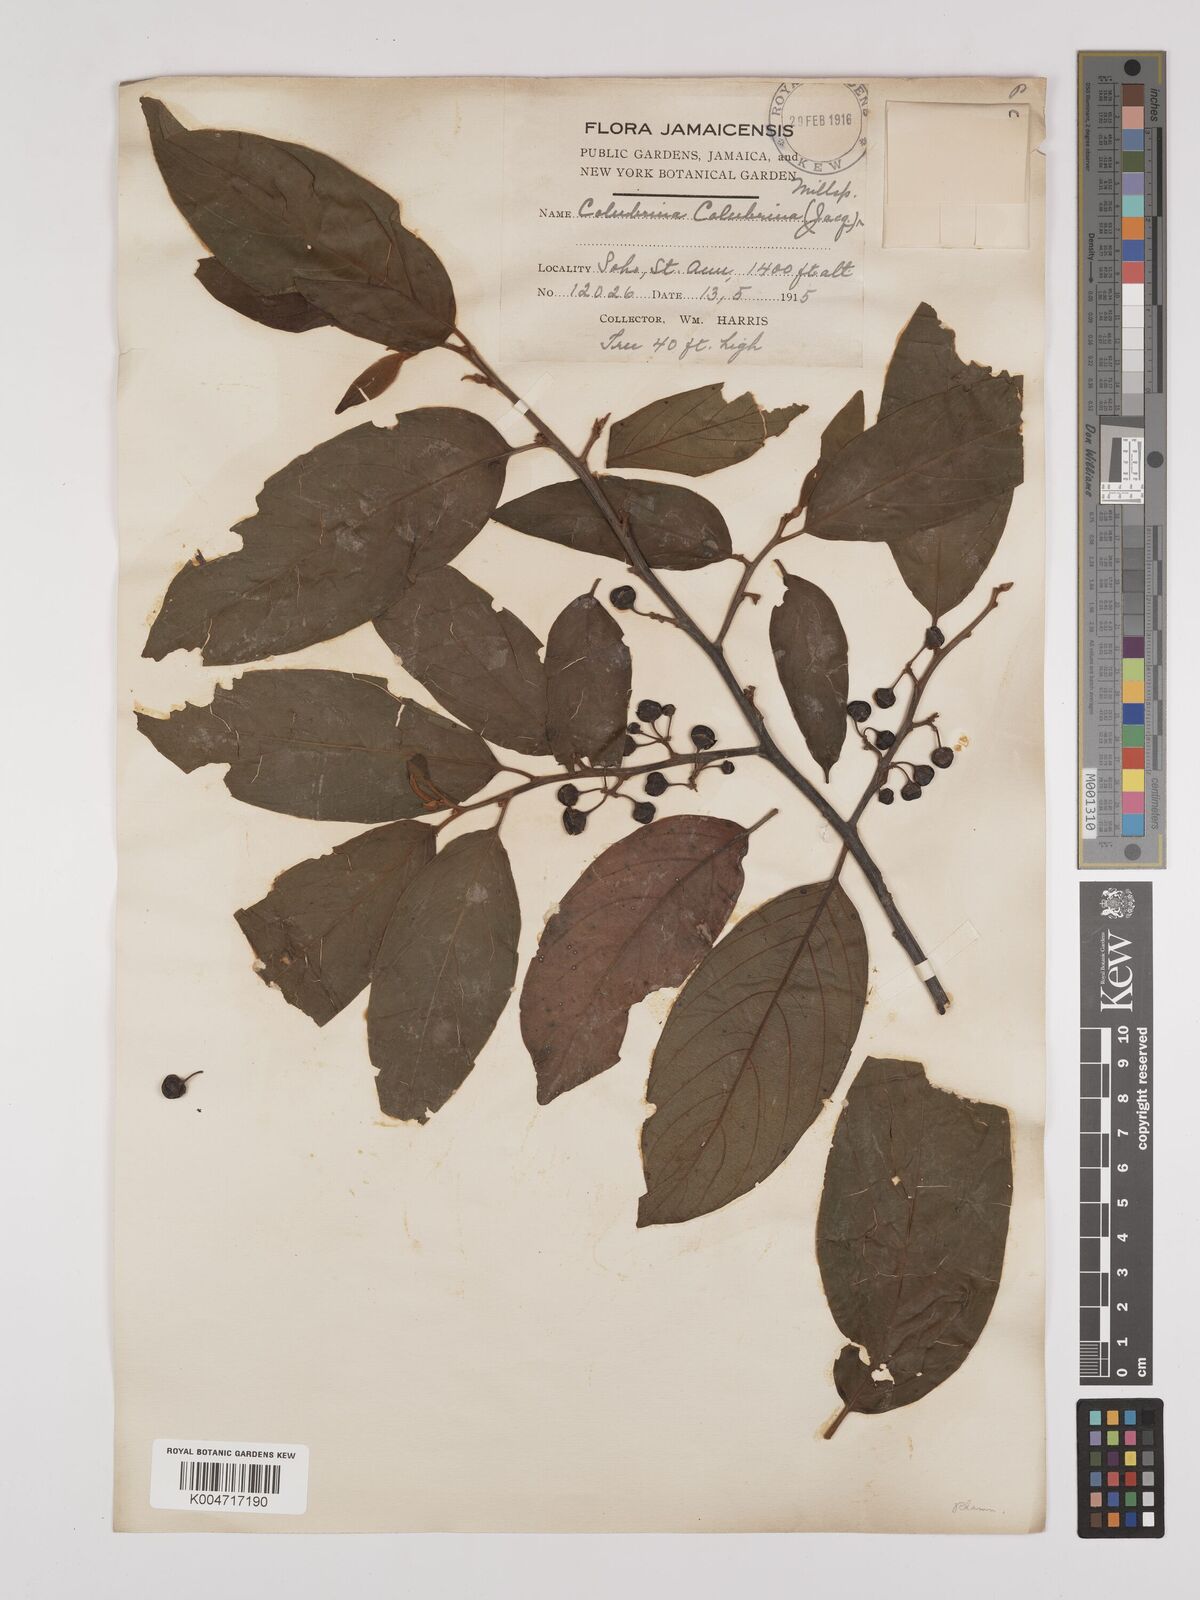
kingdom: Plantae
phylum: Tracheophyta
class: Magnoliopsida
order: Rosales
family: Rhamnaceae
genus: Colubrina
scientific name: Colubrina arborescens
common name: Wild coffee
